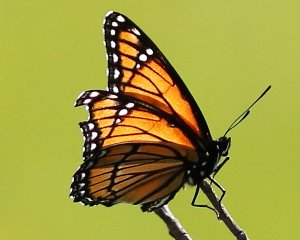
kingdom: Animalia
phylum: Arthropoda
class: Insecta
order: Lepidoptera
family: Nymphalidae
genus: Limenitis
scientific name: Limenitis archippus
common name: Viceroy
